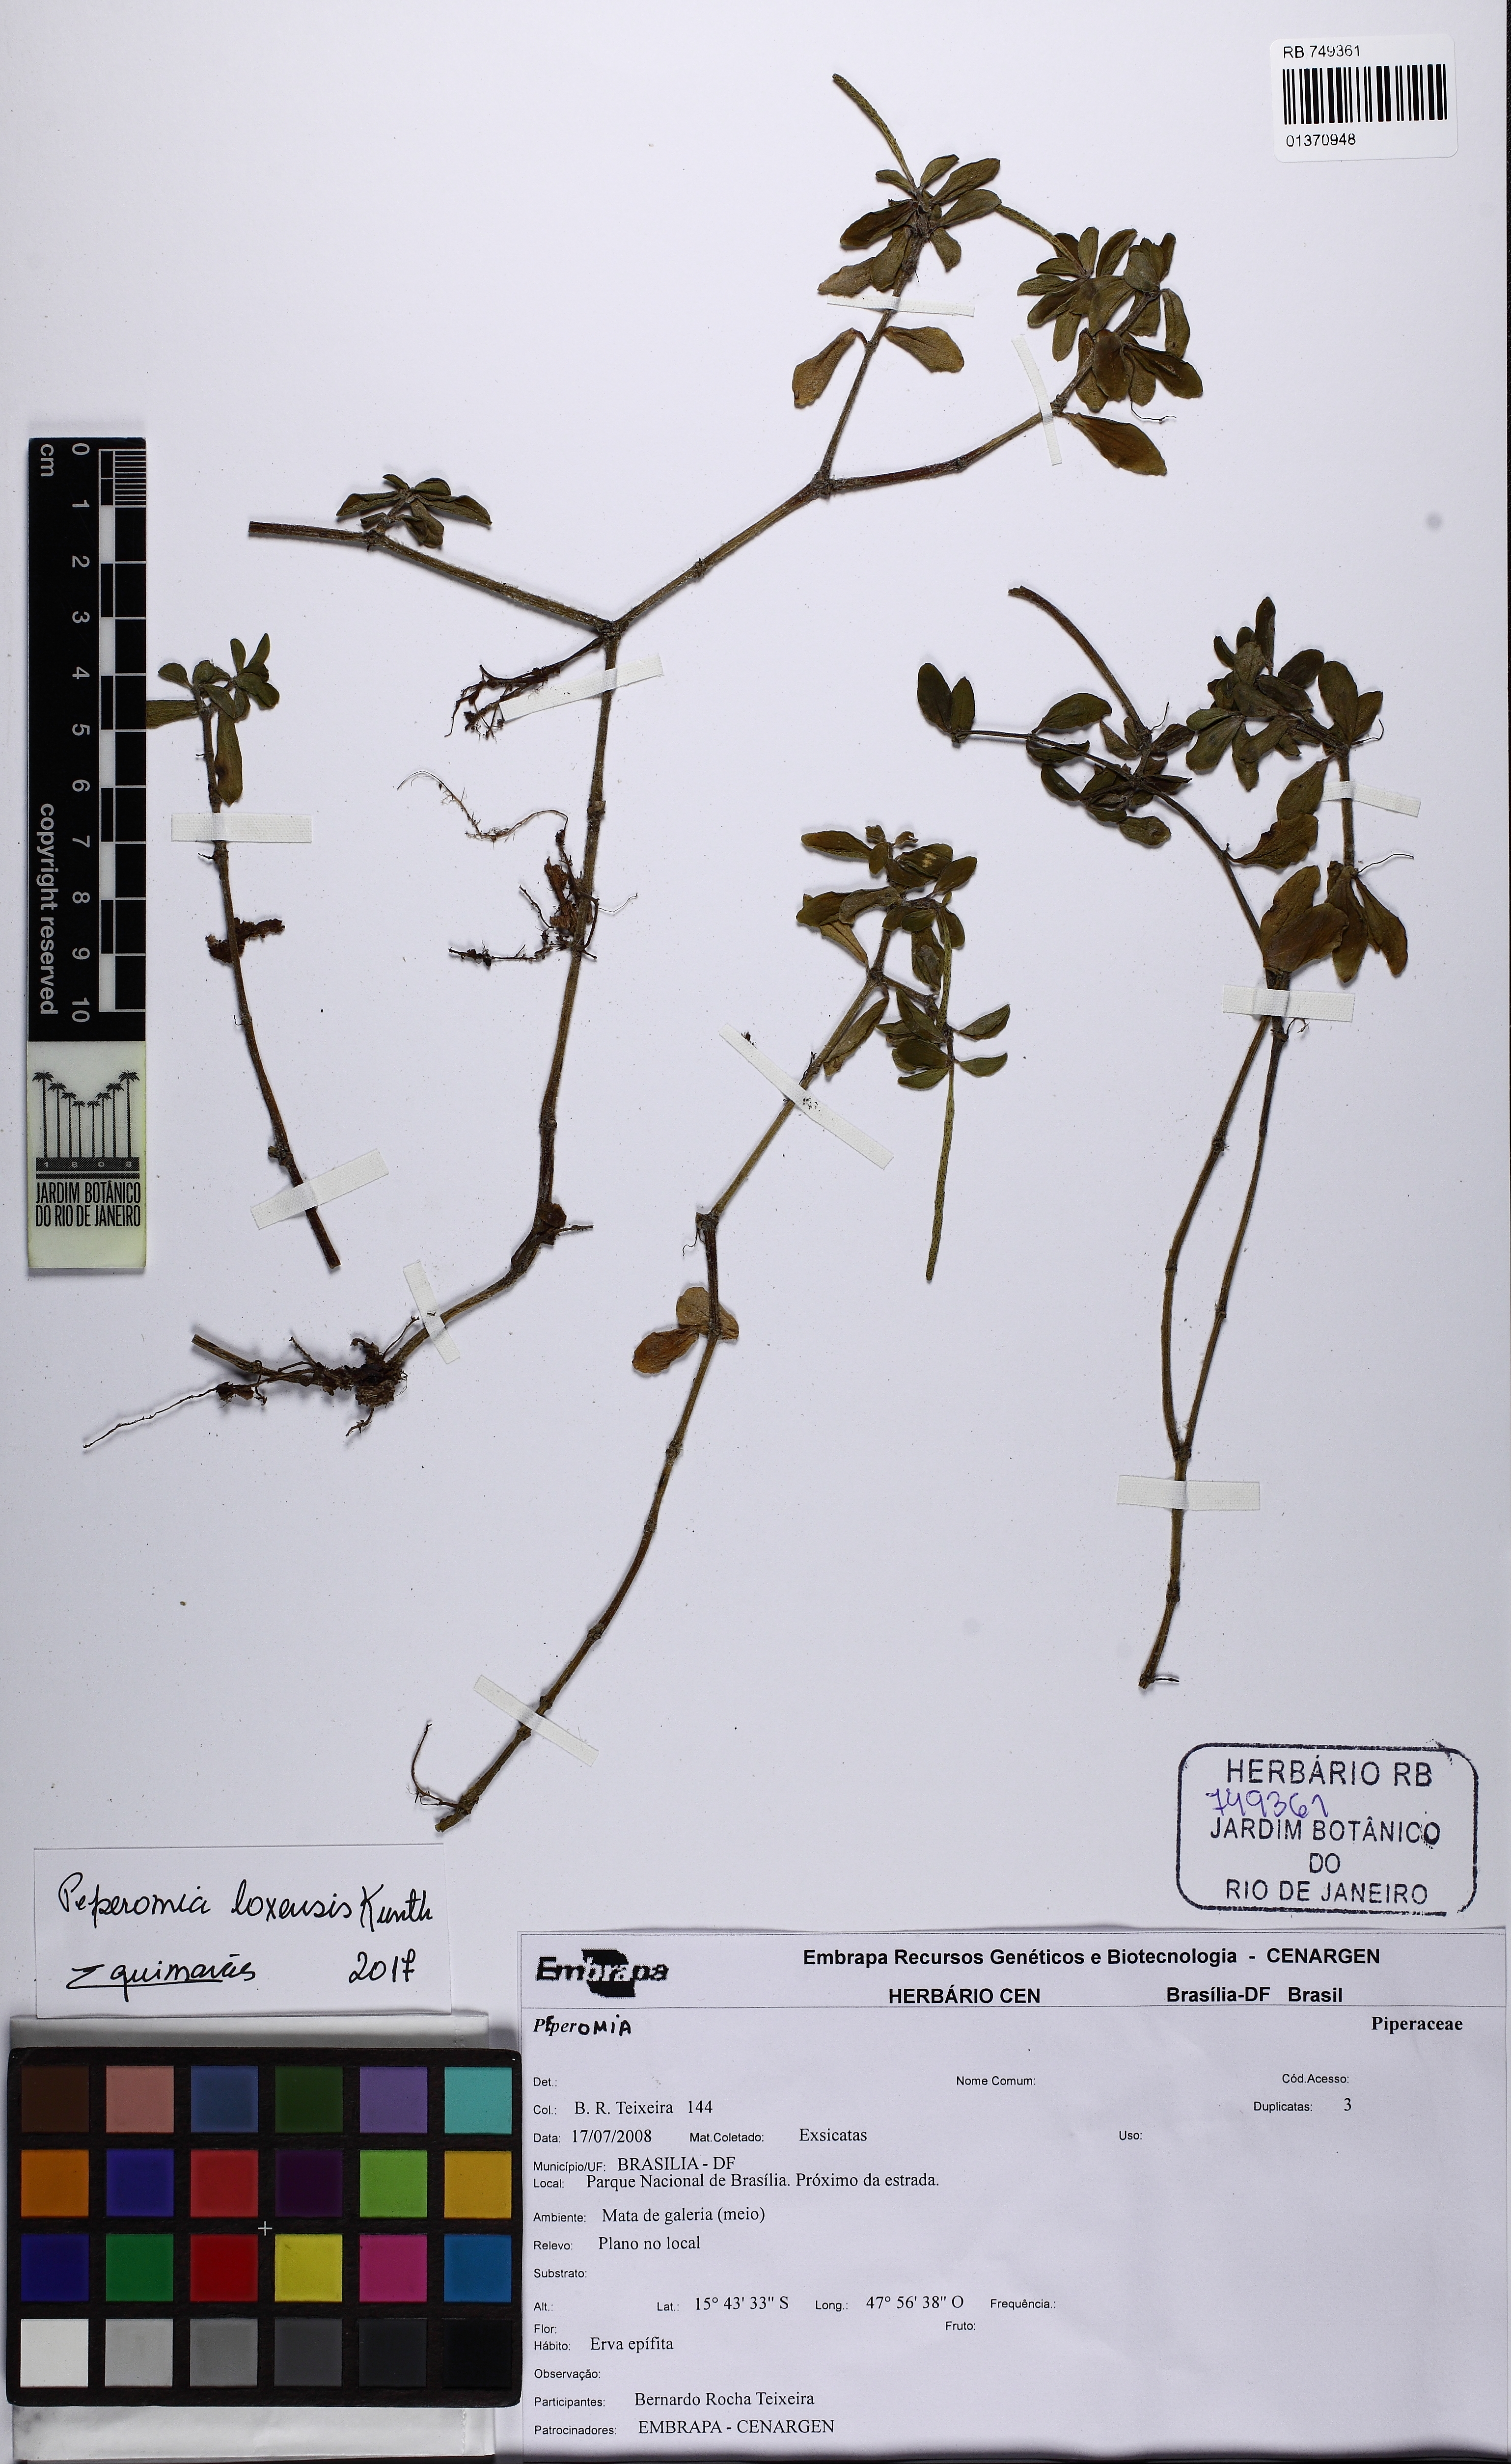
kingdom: Plantae
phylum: Tracheophyta
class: Magnoliopsida
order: Piperales
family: Piperaceae
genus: Peperomia
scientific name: Peperomia loxensis
